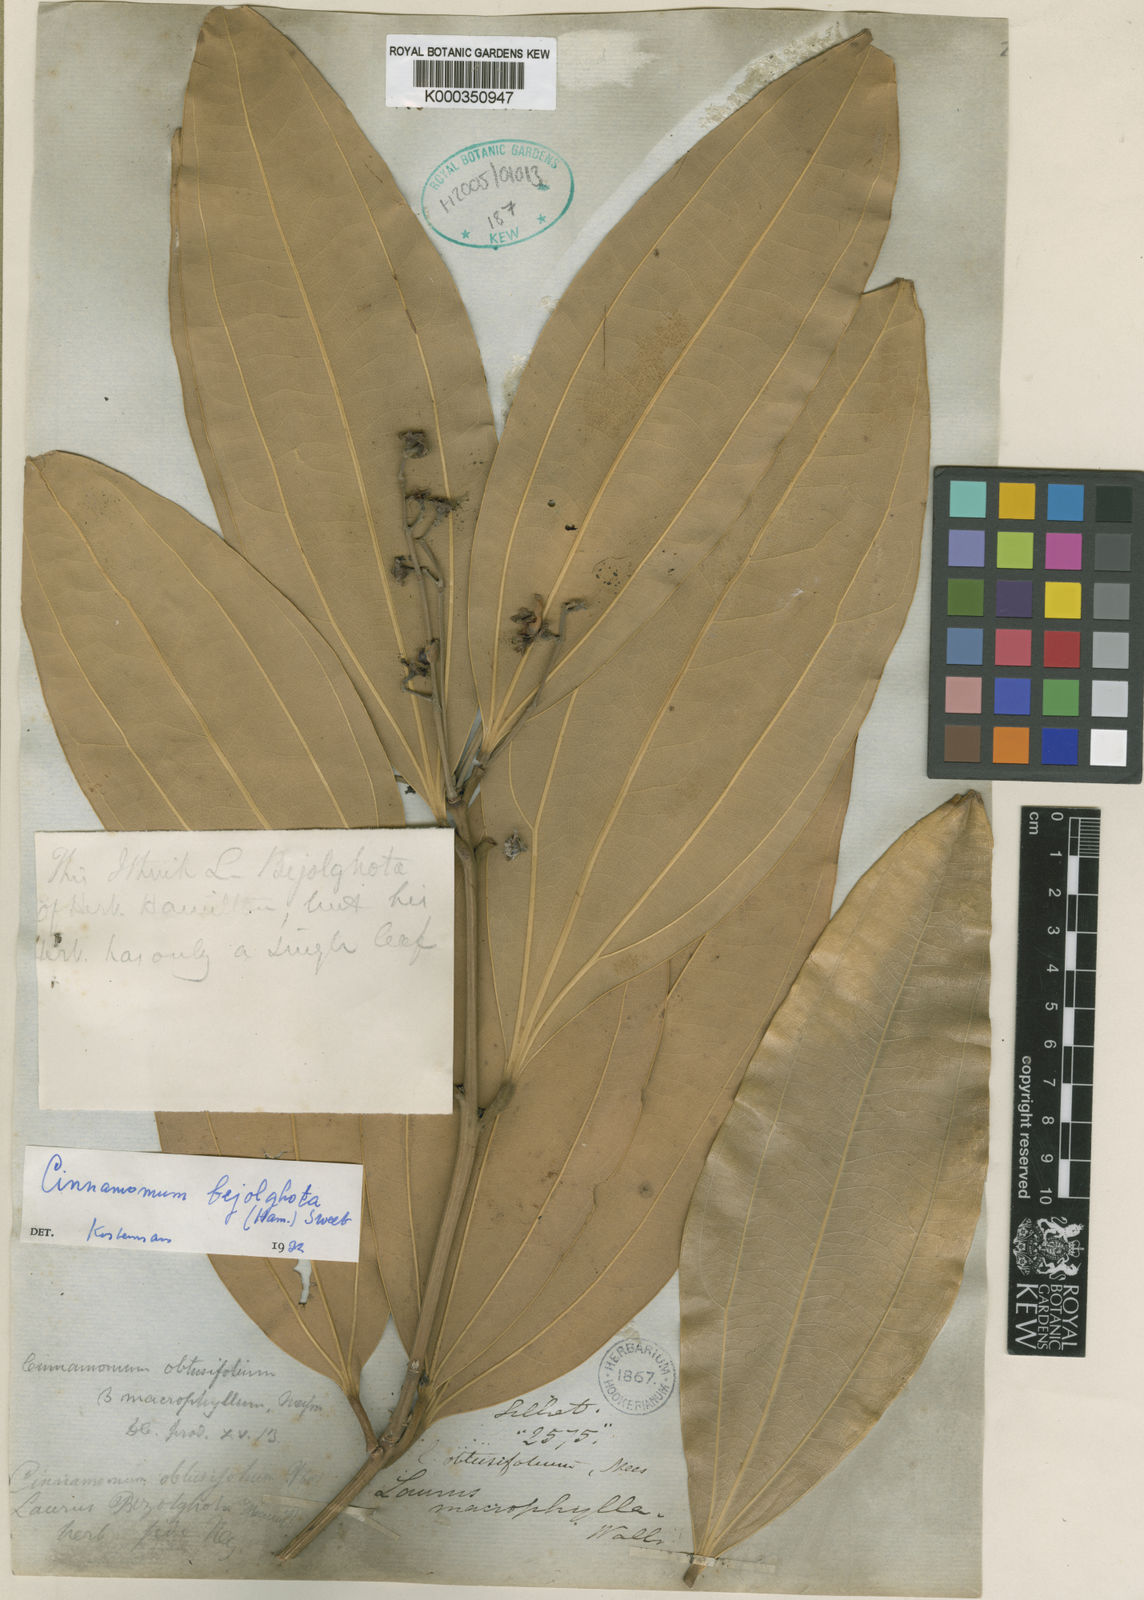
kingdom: Plantae
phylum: Tracheophyta
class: Magnoliopsida
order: Laurales
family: Lauraceae
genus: Cinnamomum
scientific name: Cinnamomum bejolghota
